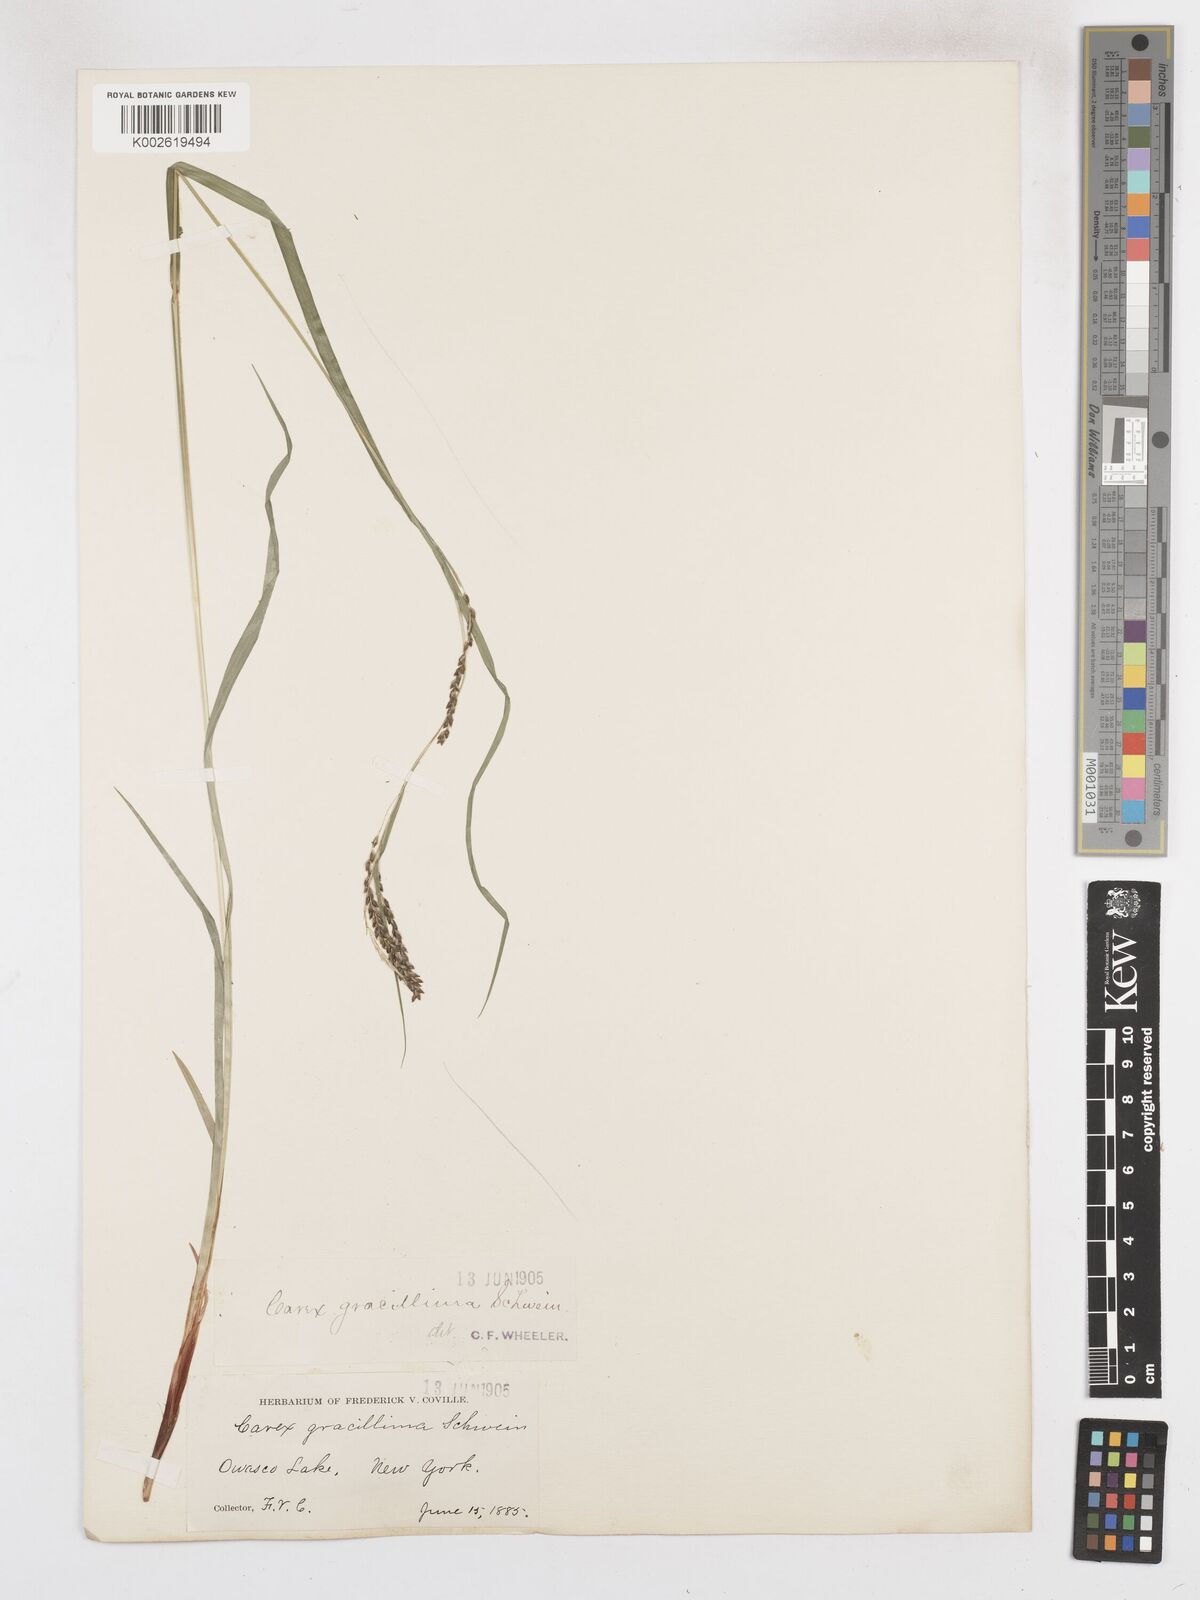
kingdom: Plantae
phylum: Tracheophyta
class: Liliopsida
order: Poales
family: Cyperaceae
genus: Carex
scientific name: Carex gracillima
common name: Graceful sedge
